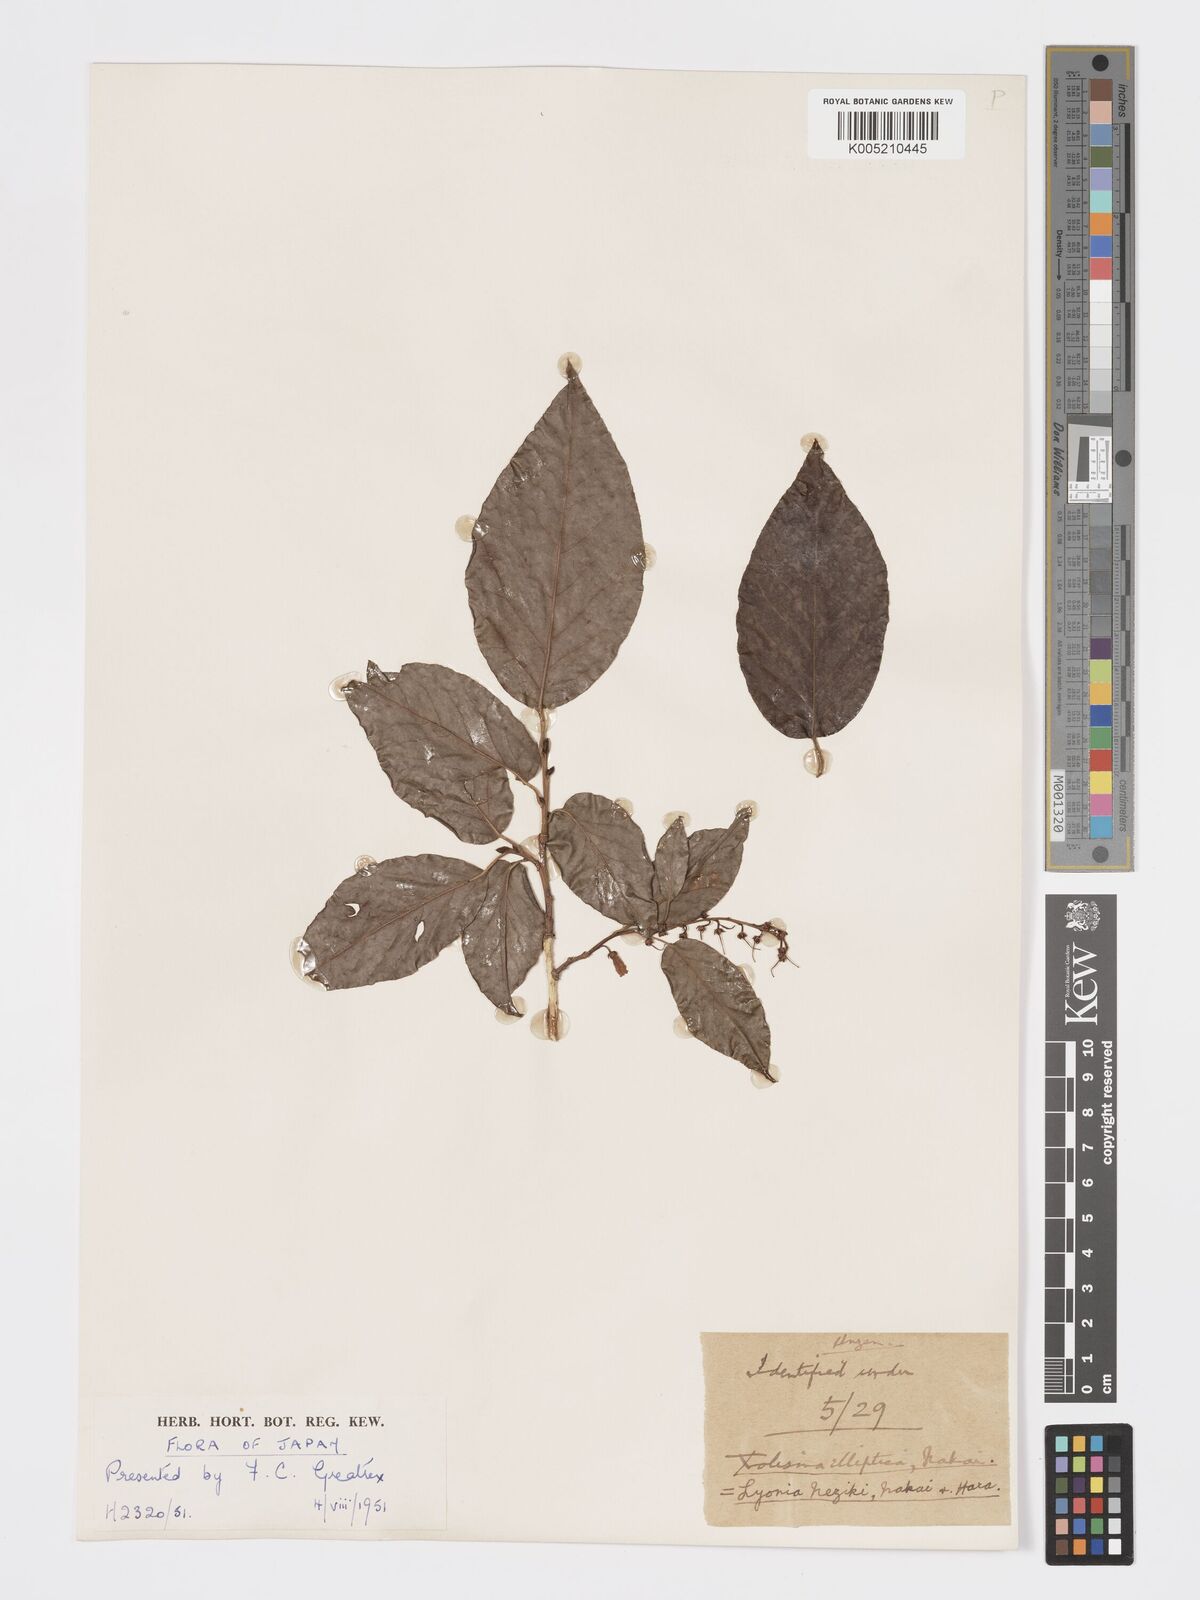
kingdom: Plantae
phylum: Tracheophyta
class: Magnoliopsida
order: Ericales
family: Ericaceae
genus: Lyonia
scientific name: Lyonia elliptica
